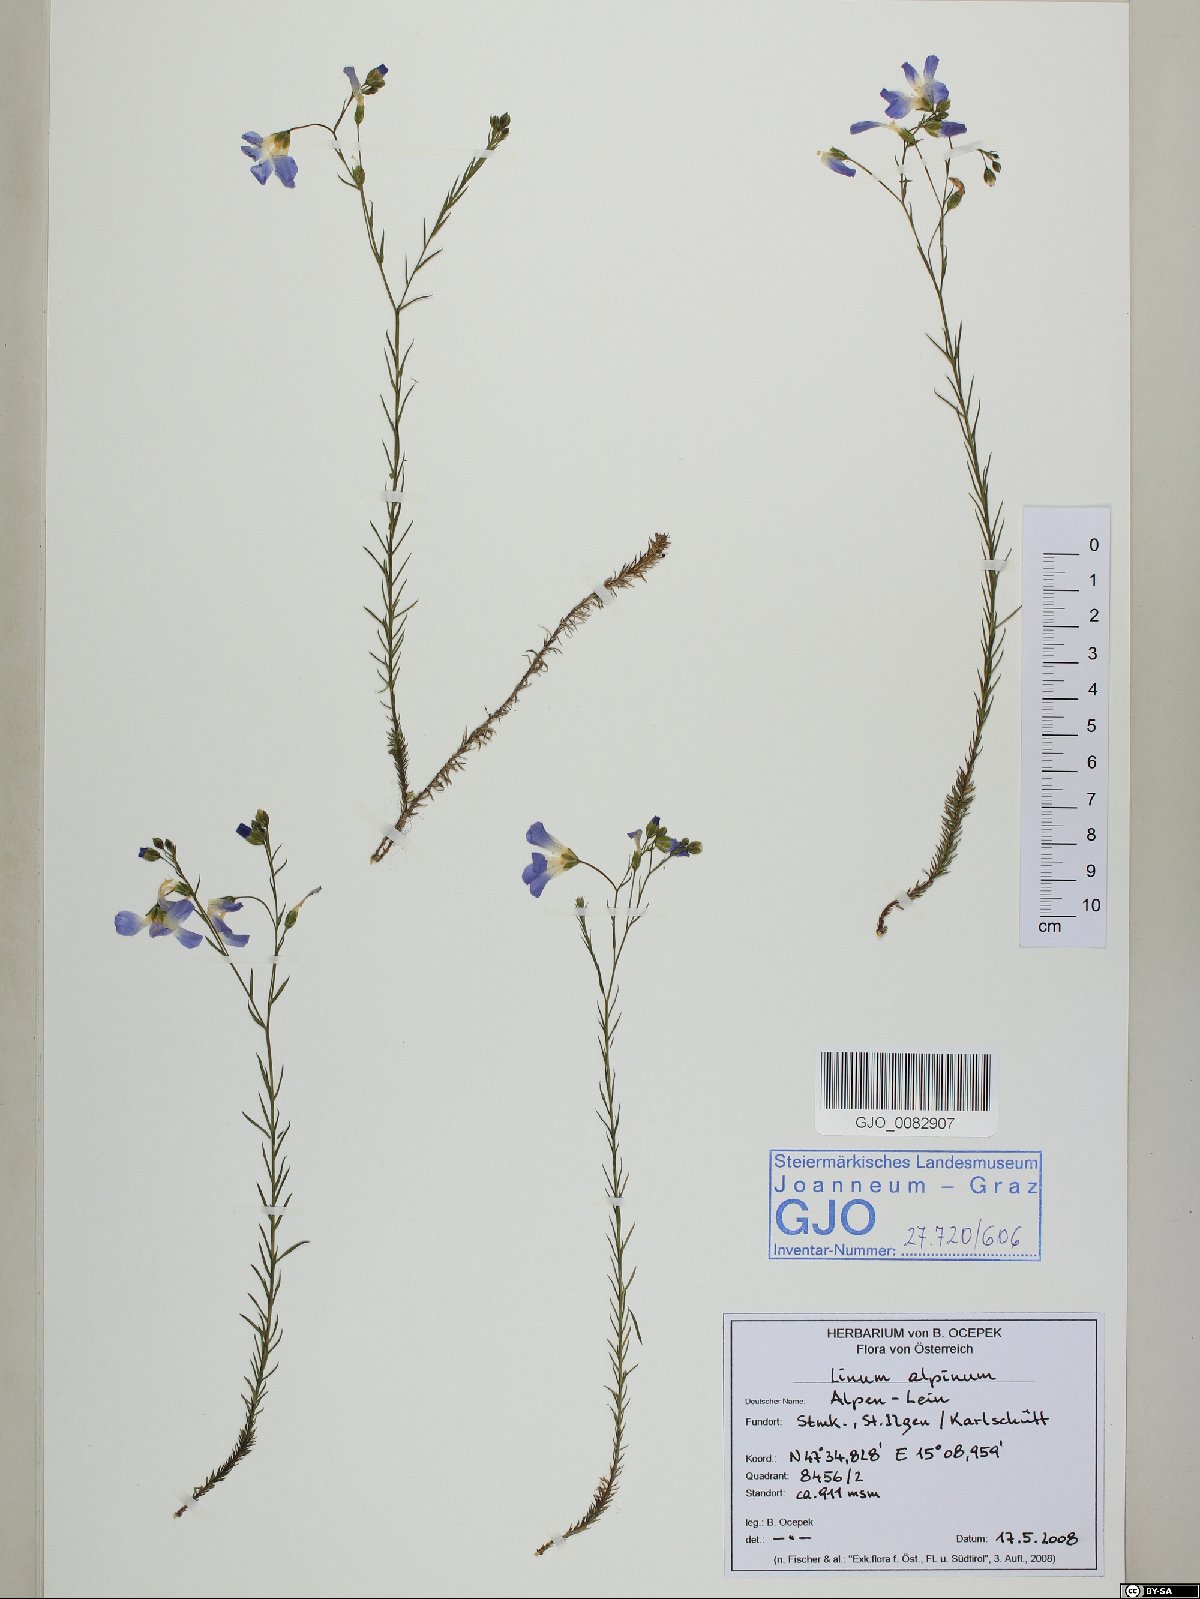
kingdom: Plantae
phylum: Tracheophyta
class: Magnoliopsida
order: Malpighiales
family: Linaceae
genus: Linum
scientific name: Linum alpinum
